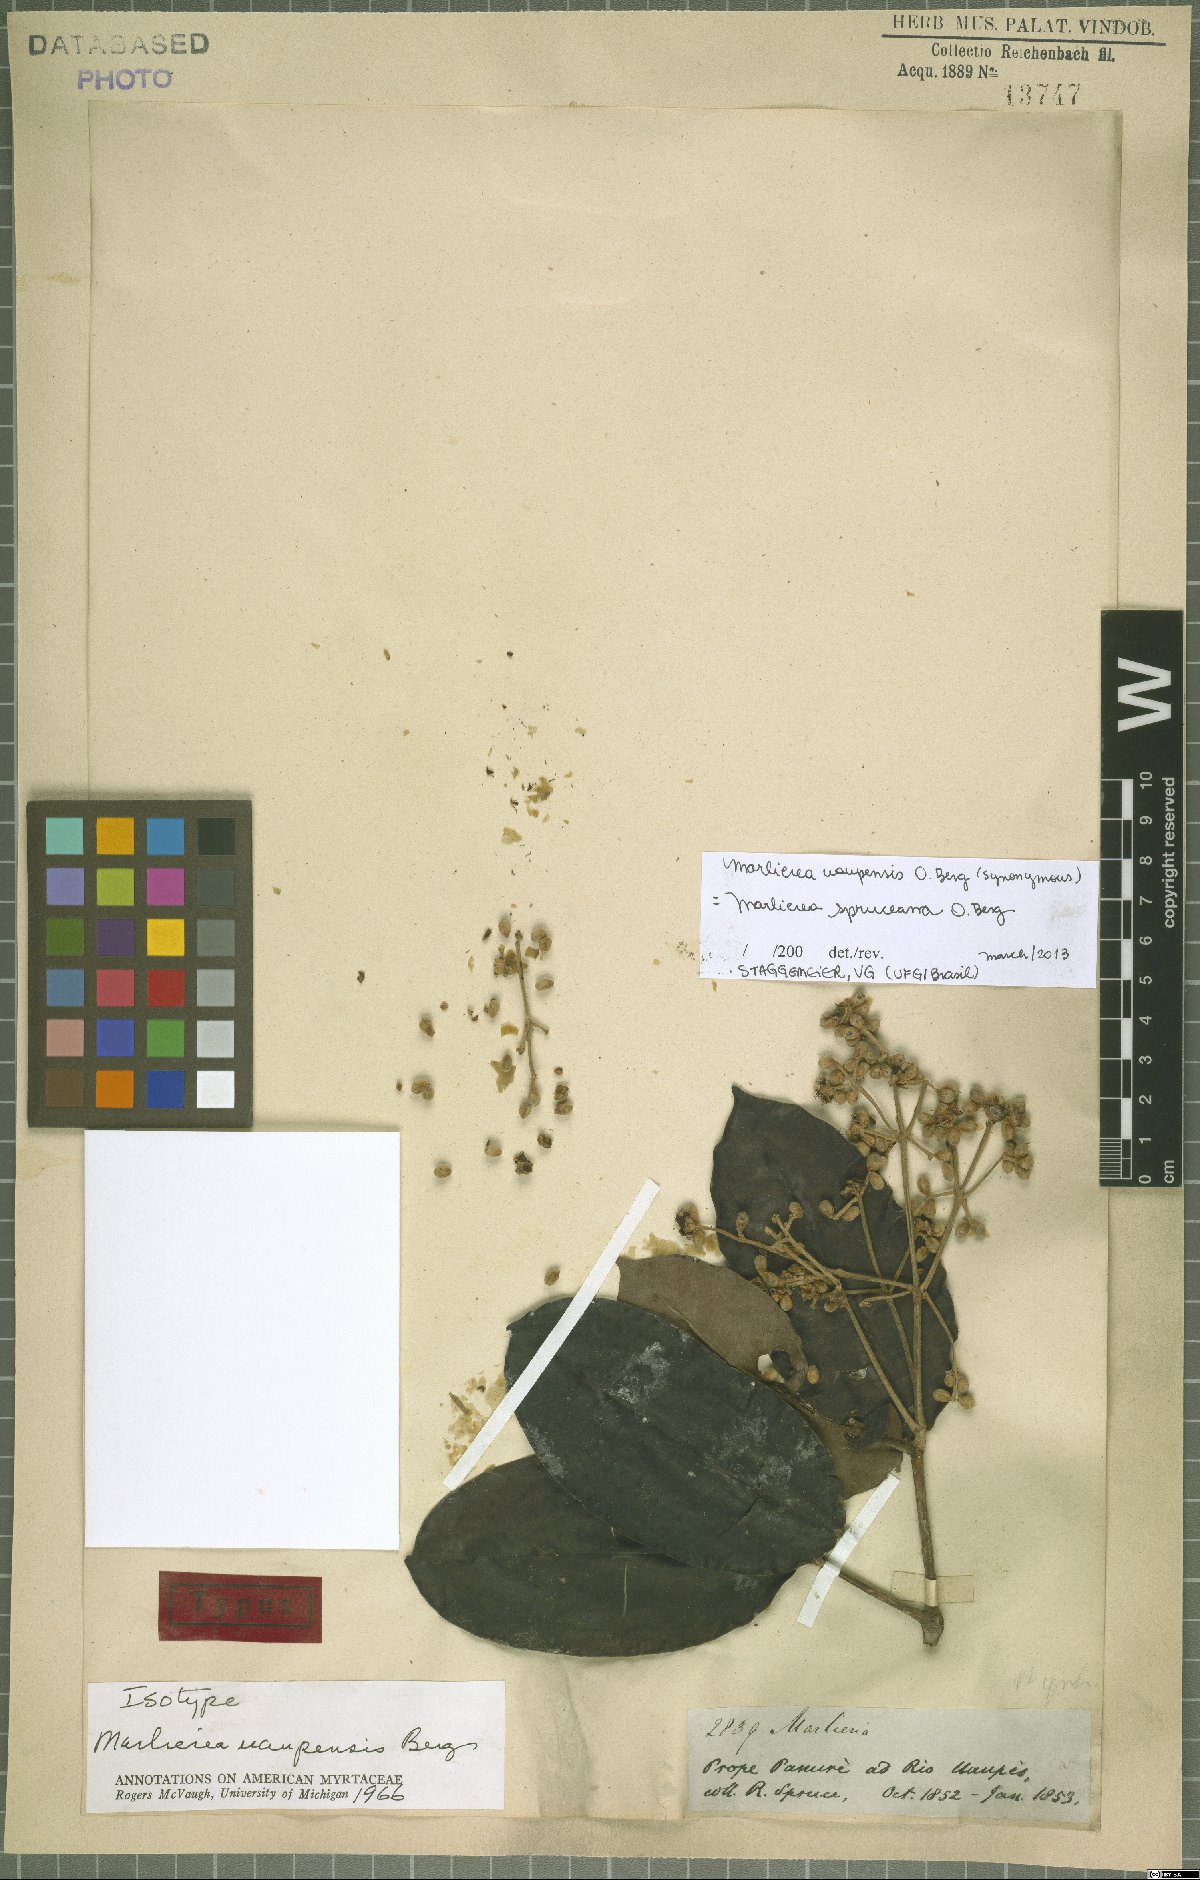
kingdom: Plantae
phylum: Tracheophyta
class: Magnoliopsida
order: Myrtales
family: Myrtaceae
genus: Myrcia
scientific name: Myrcia argentigemma
